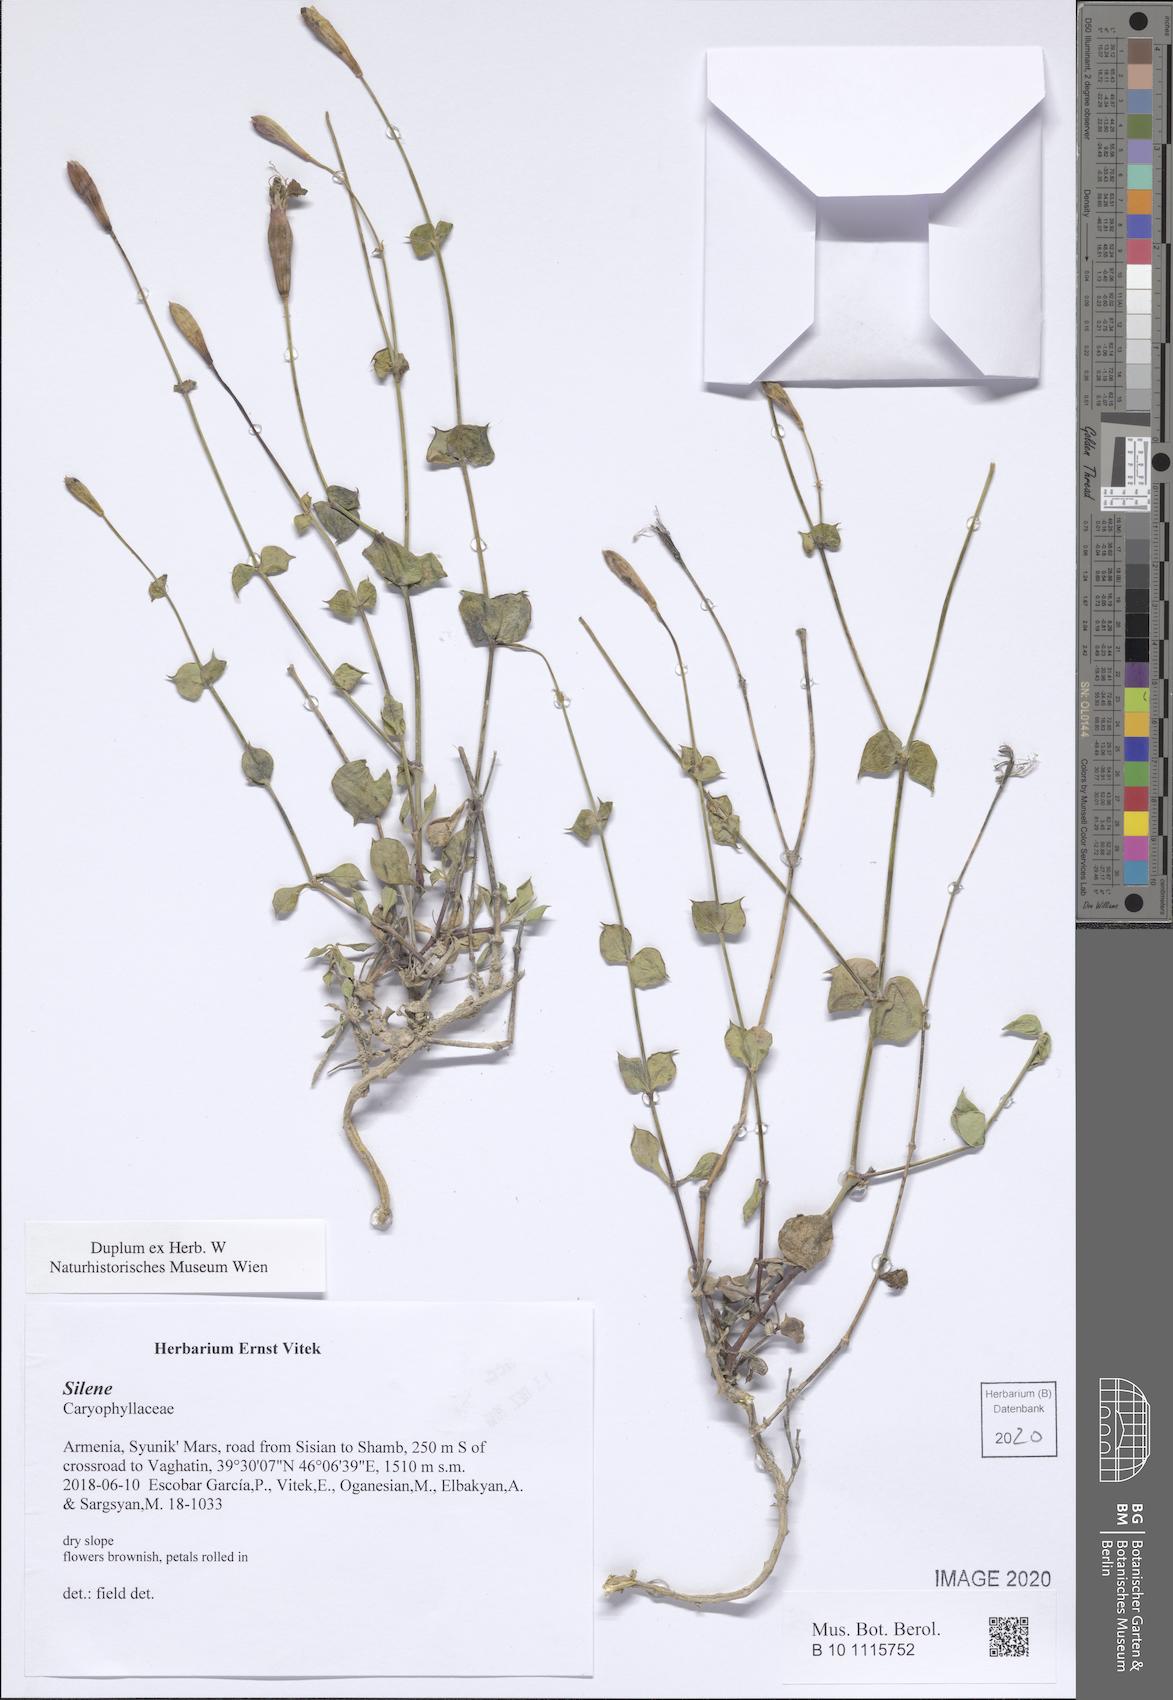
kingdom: Plantae
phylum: Tracheophyta
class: Magnoliopsida
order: Caryophyllales
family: Caryophyllaceae
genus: Silene
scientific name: Silene
